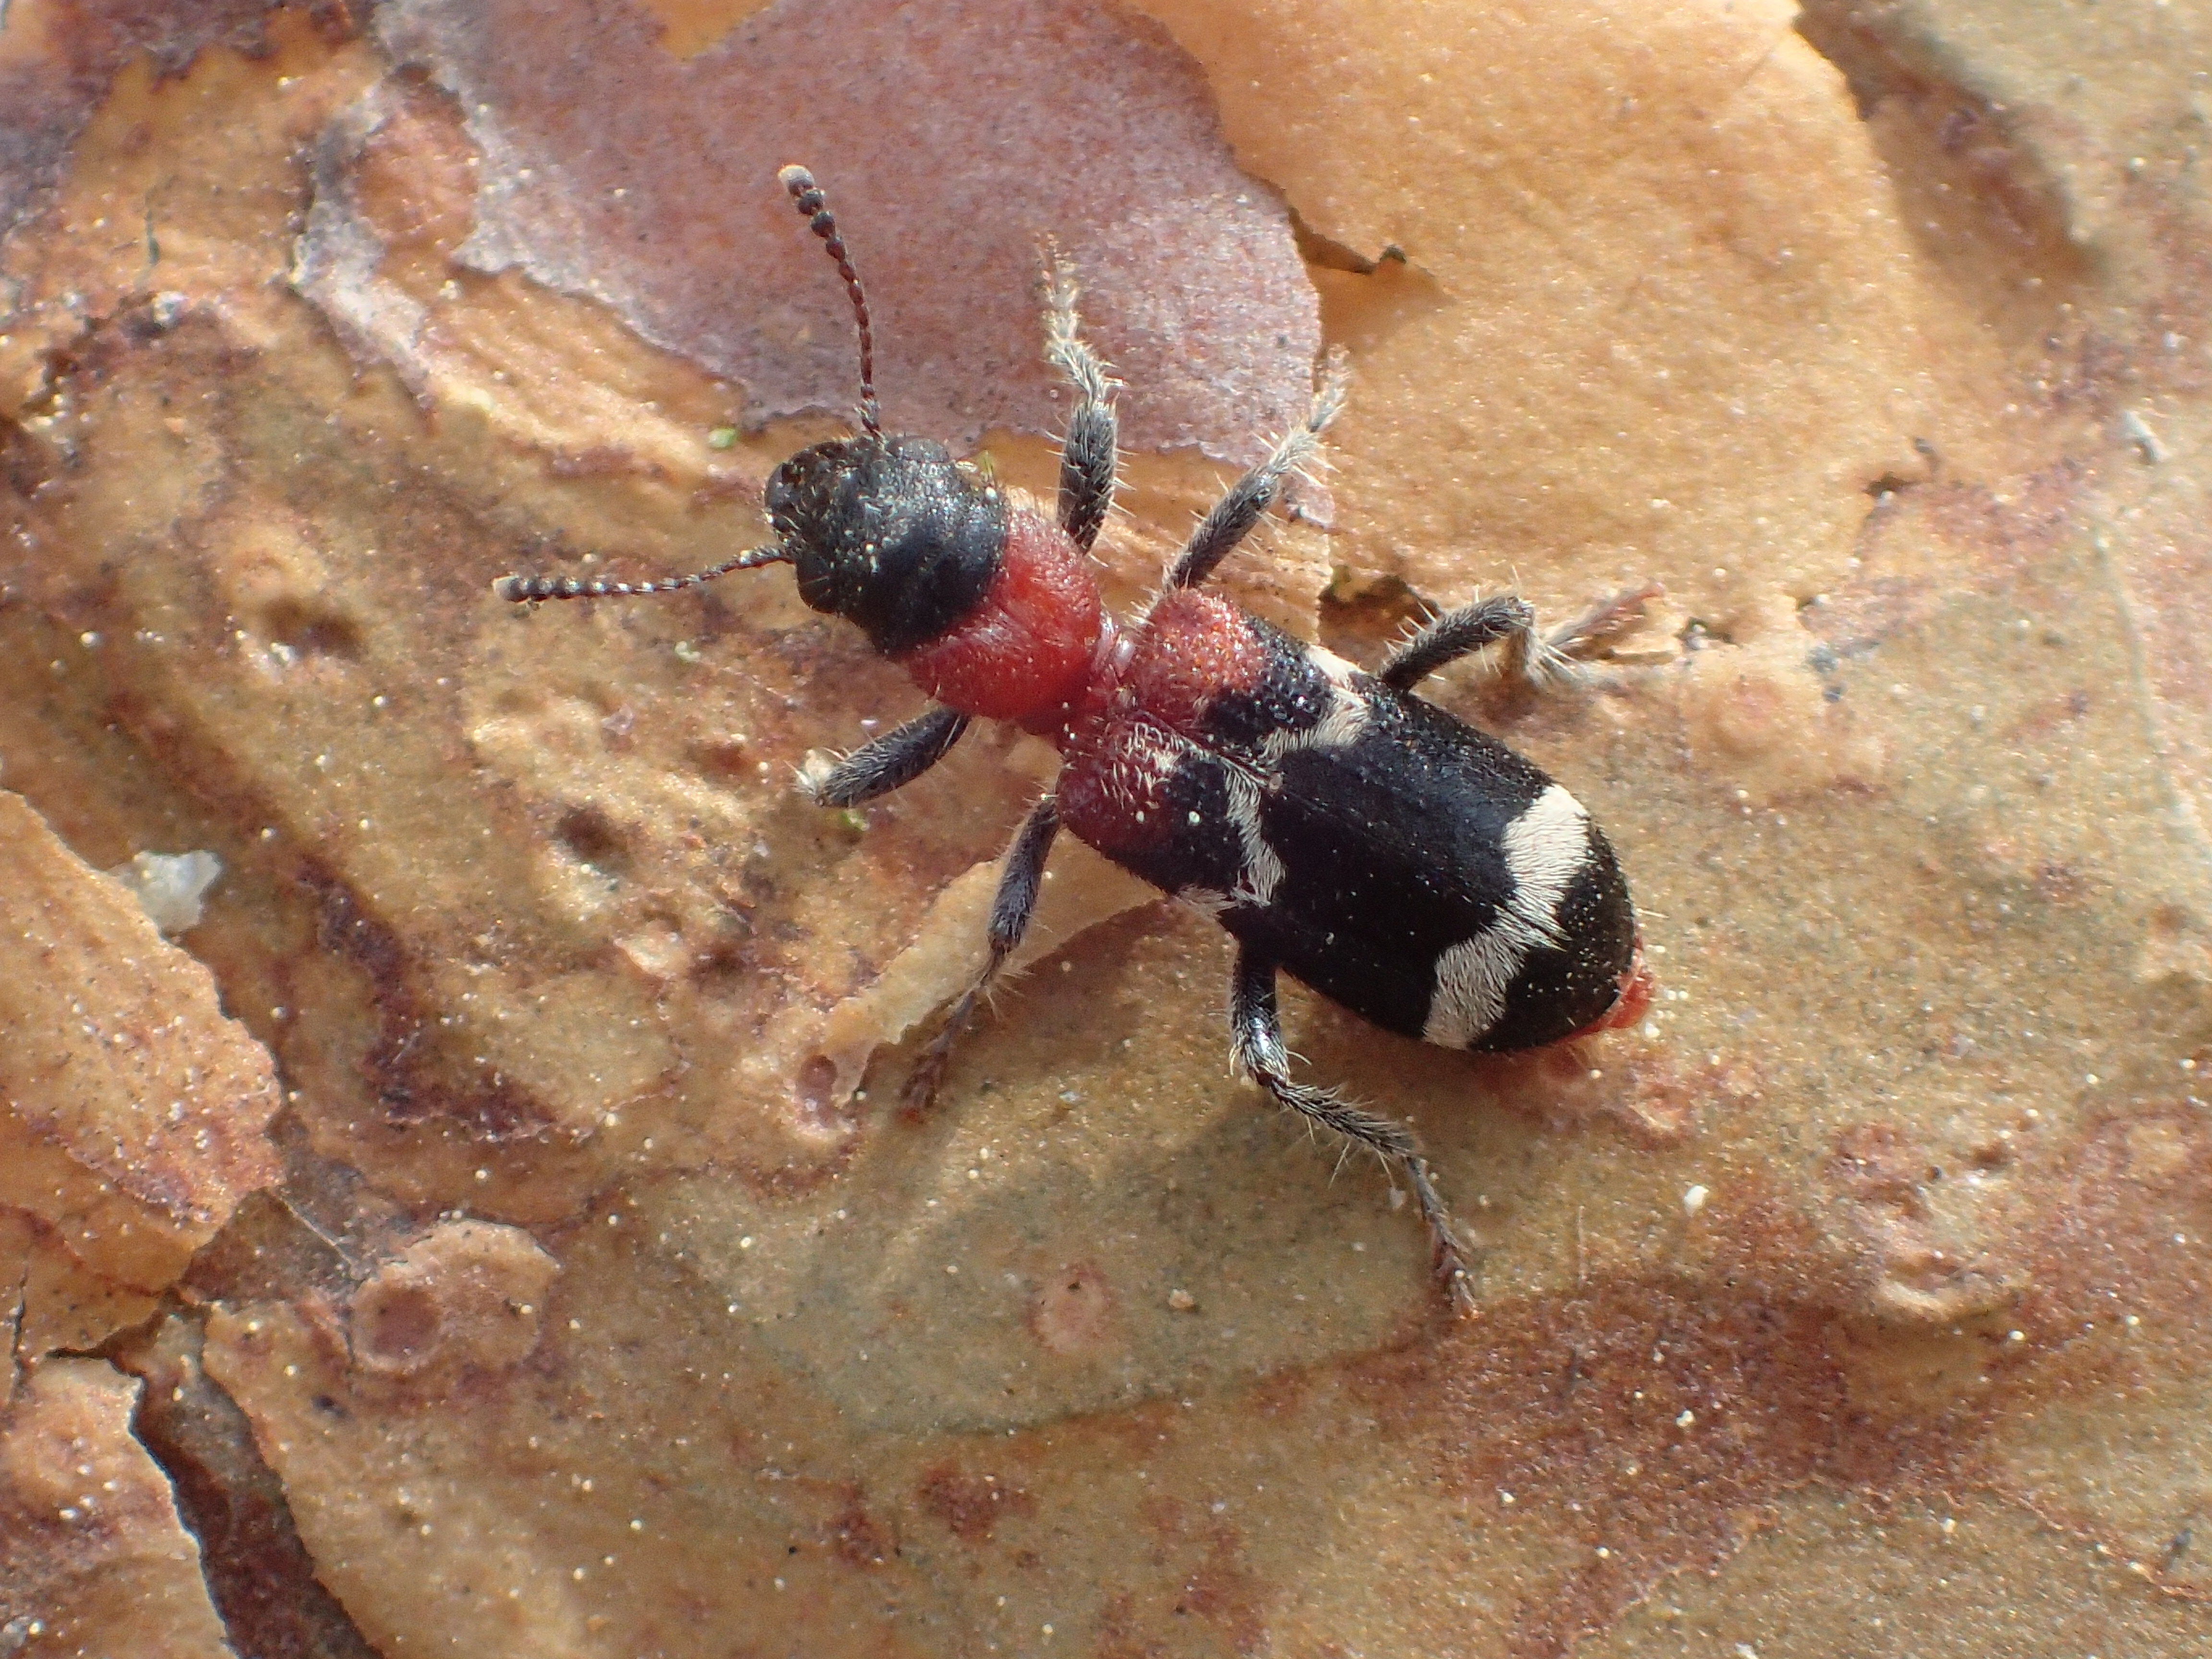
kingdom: Animalia
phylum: Arthropoda
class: Insecta
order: Coleoptera
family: Cleridae
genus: Thanasimus
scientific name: Thanasimus formicarius
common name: Ant beetle
